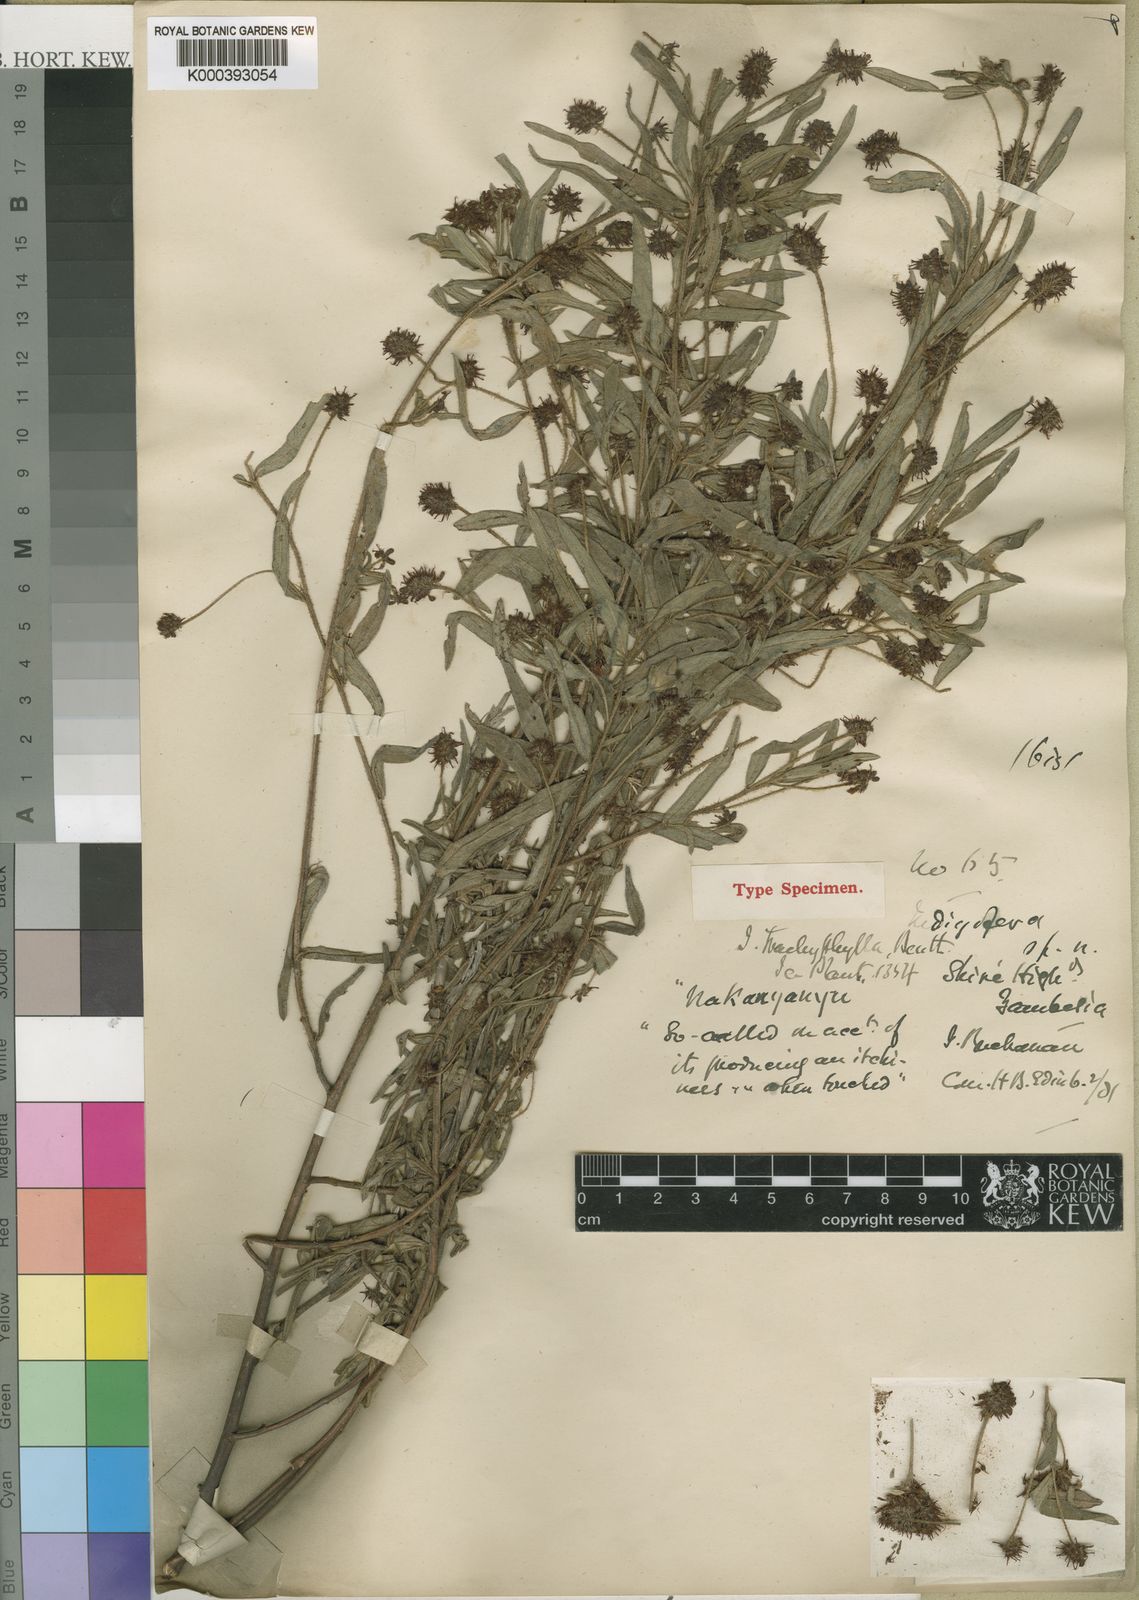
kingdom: Plantae
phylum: Tracheophyta
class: Magnoliopsida
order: Fabales
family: Fabaceae
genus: Indigofera
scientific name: Indigofera trachyphylla
